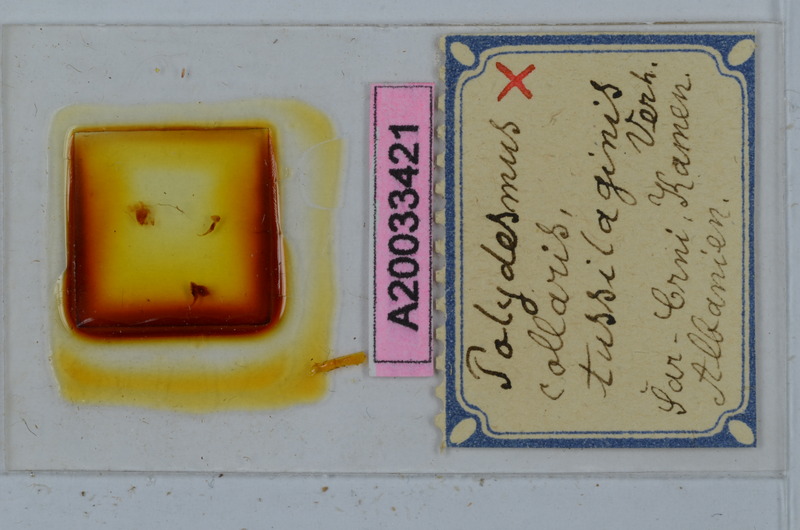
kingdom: Animalia
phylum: Arthropoda
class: Diplopoda
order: Polydesmida
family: Polydesmidae
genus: Polydesmus
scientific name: Polydesmus collaris
